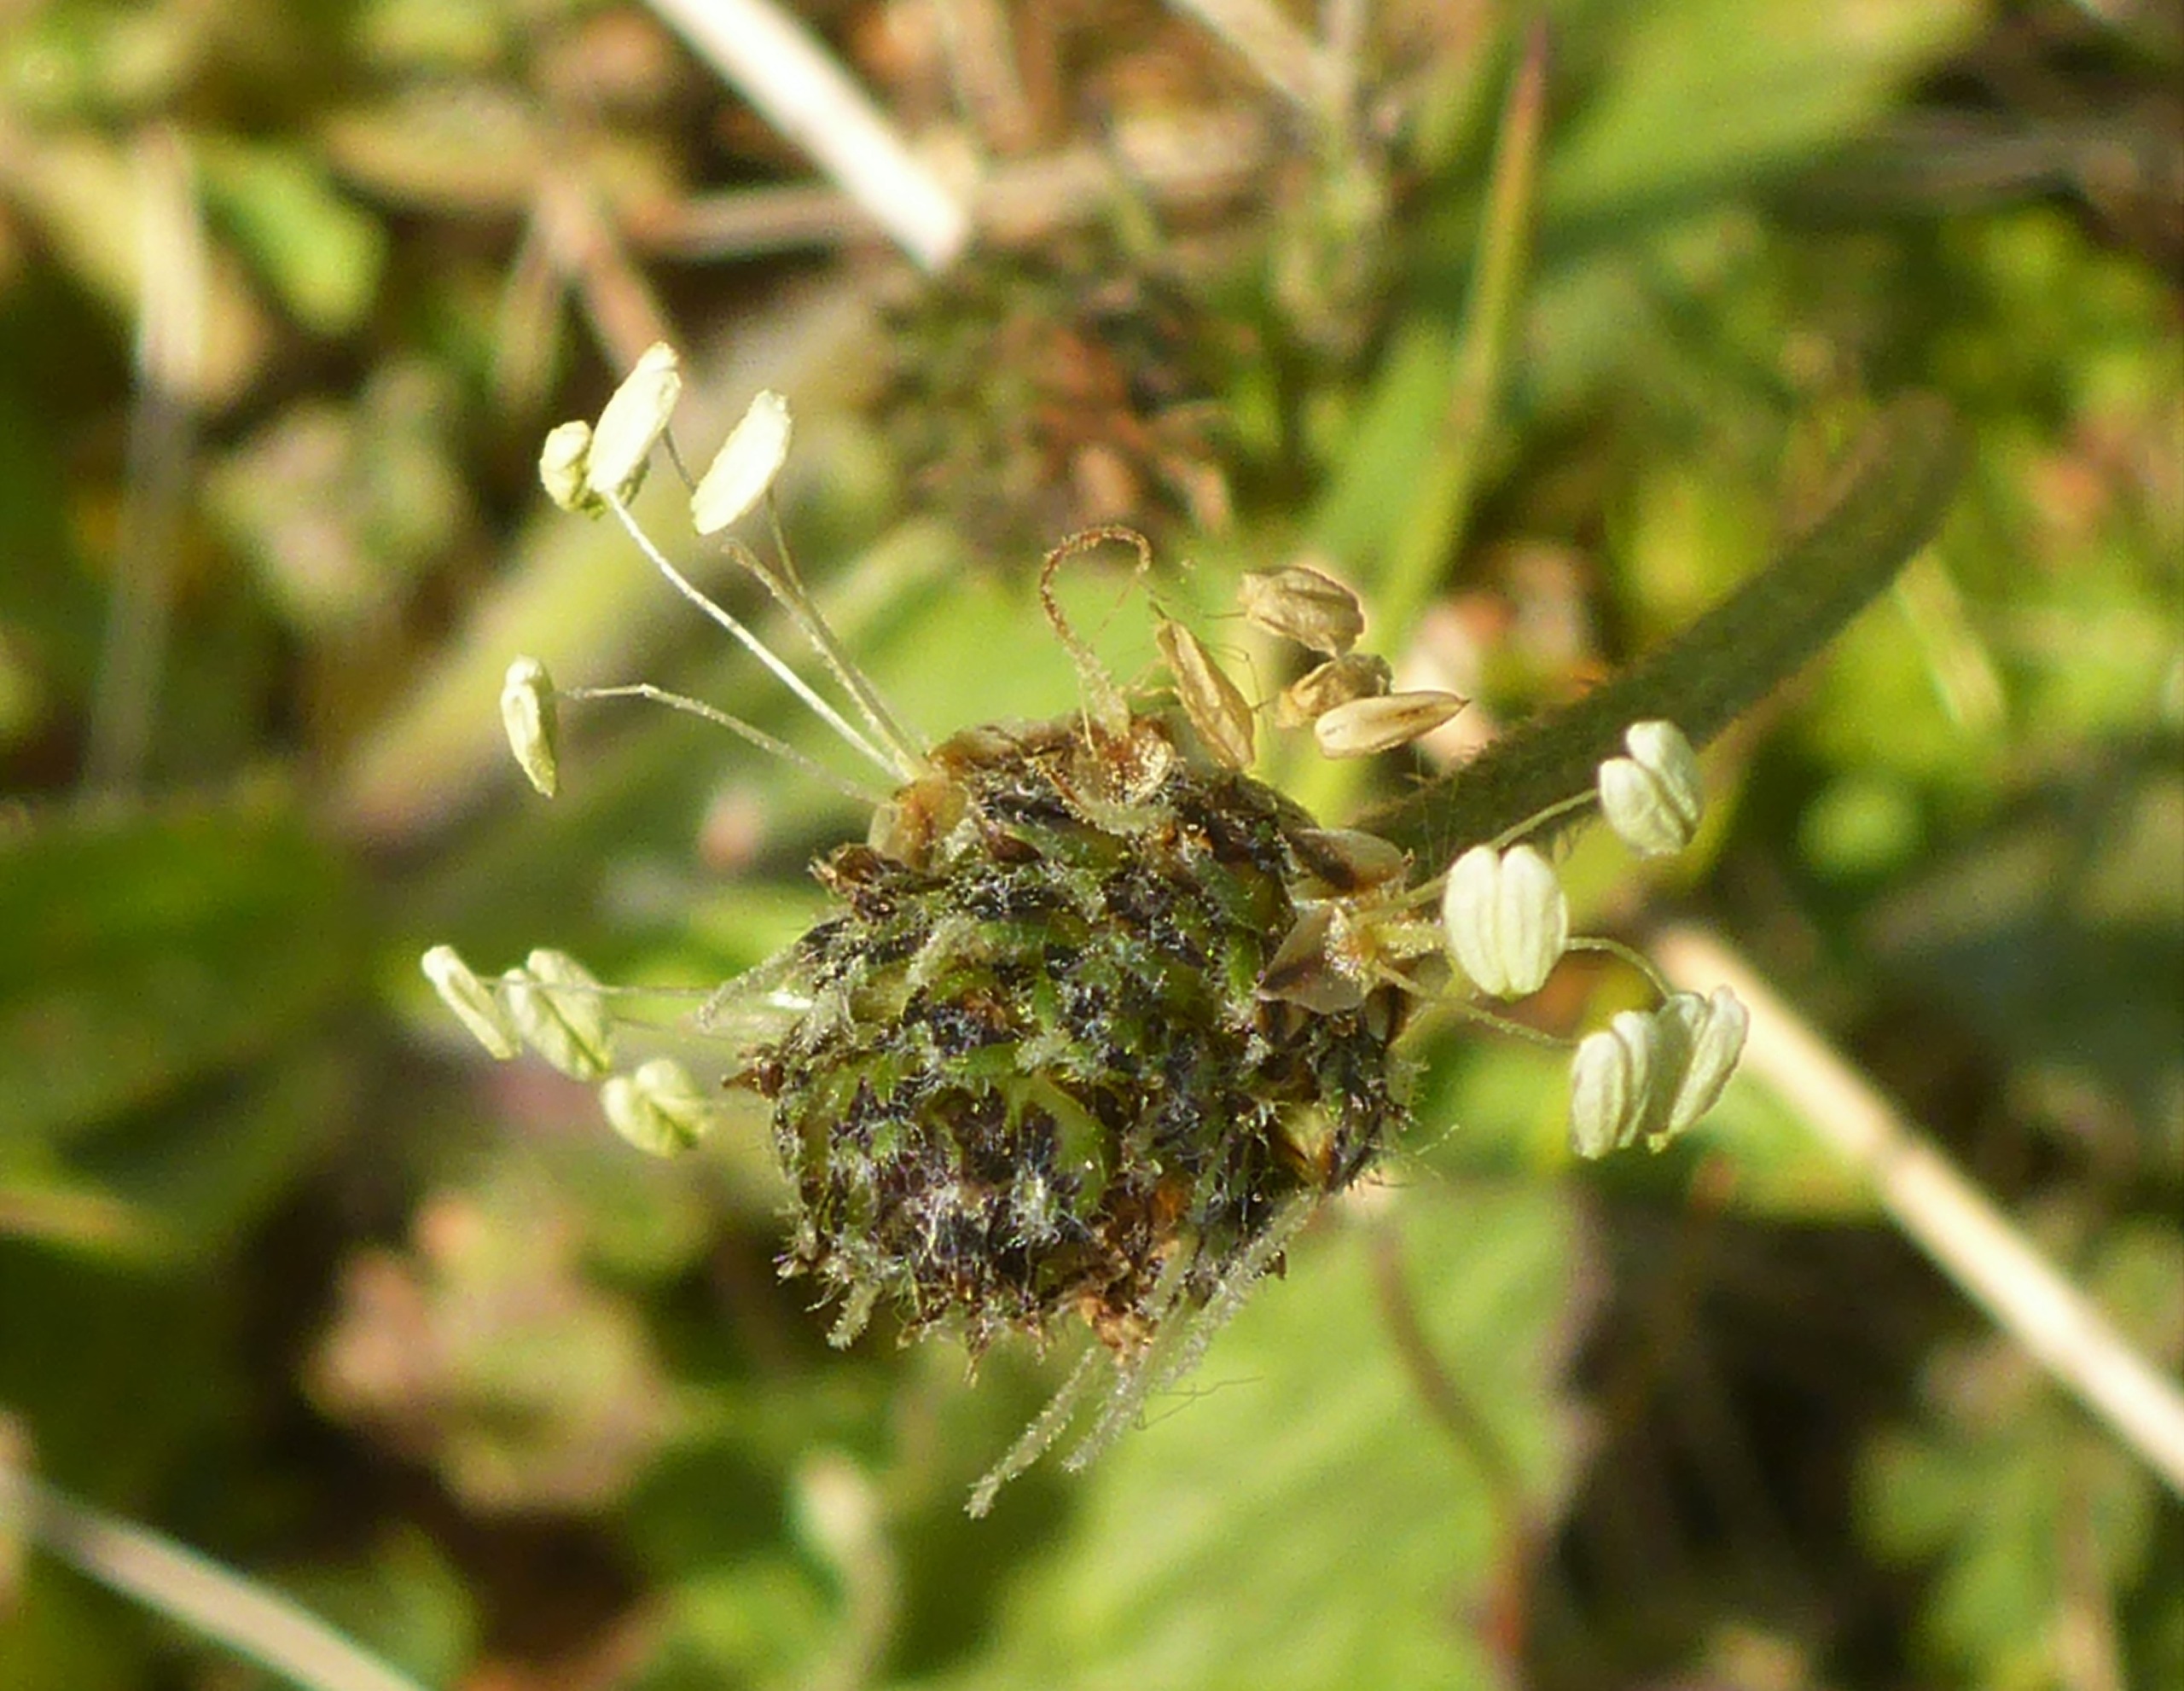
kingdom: Plantae
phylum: Tracheophyta
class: Magnoliopsida
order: Lamiales
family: Plantaginaceae
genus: Plantago
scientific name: Plantago lanceolata
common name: Lancet-vejbred
